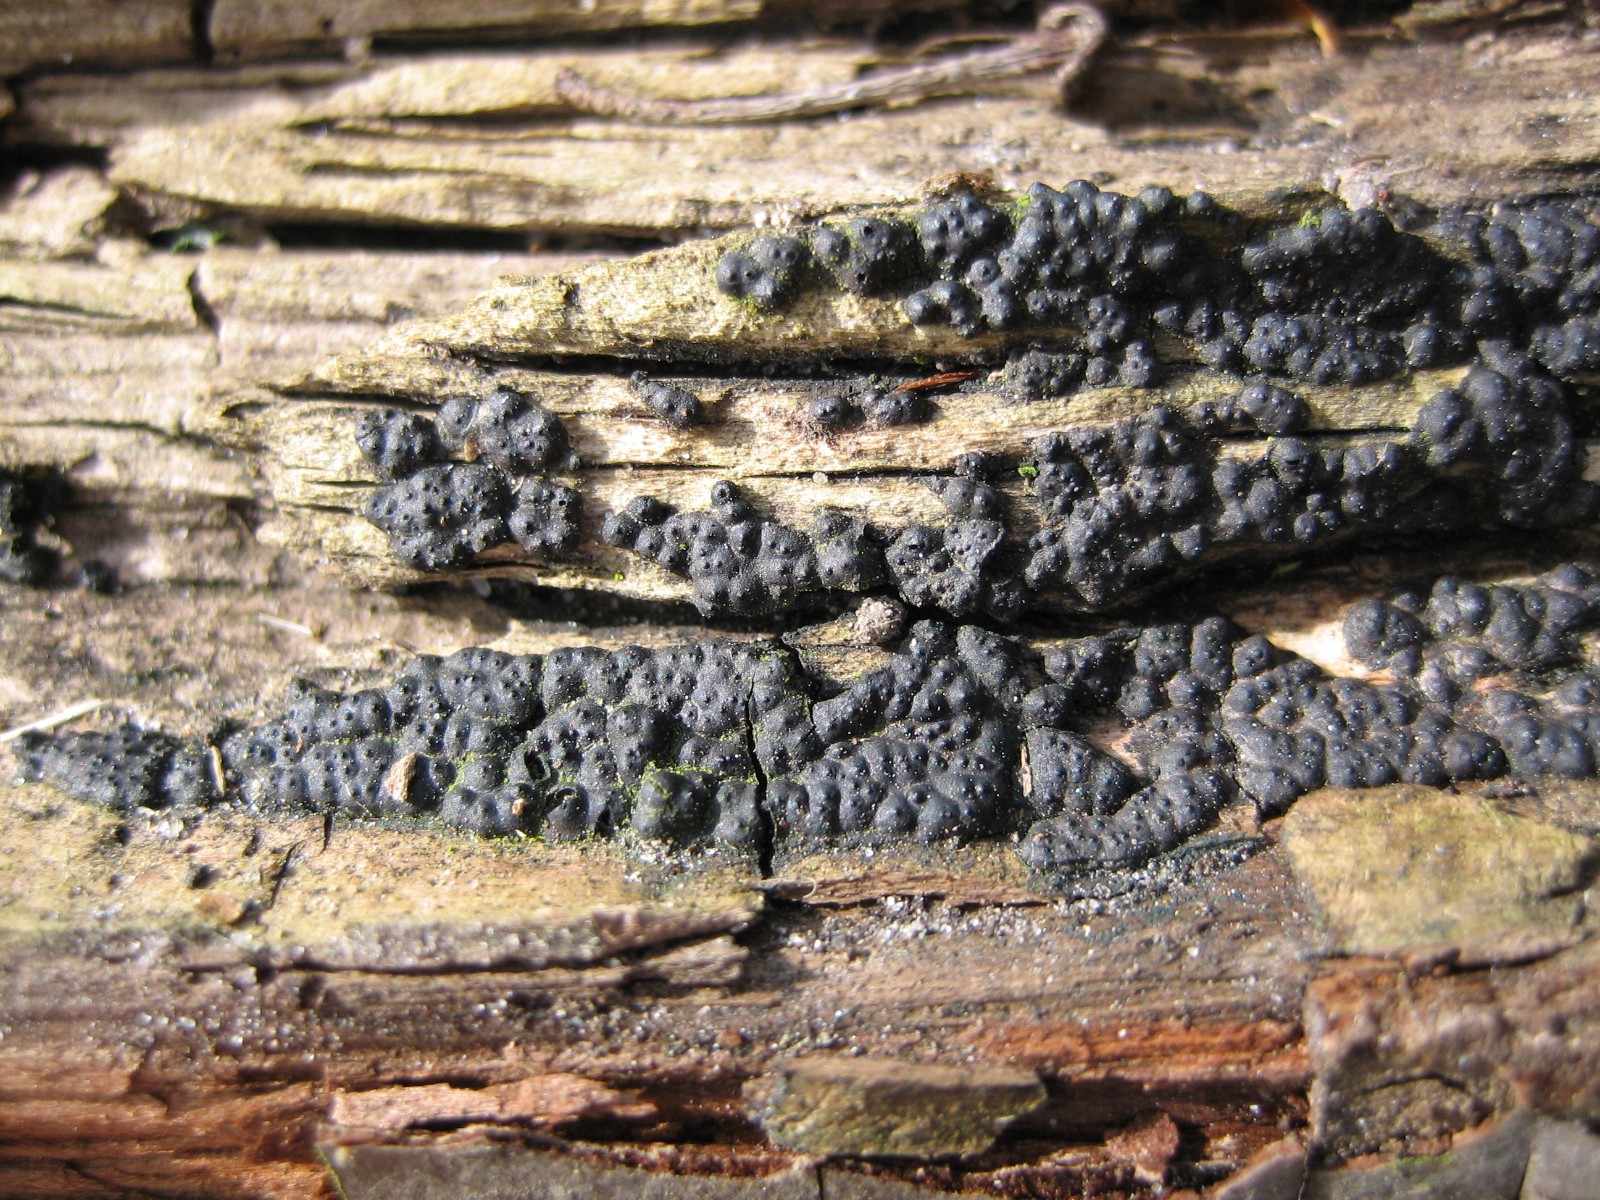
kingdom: Fungi
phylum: Ascomycota
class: Sordariomycetes
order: Xylariales
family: Xylariaceae
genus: Nemania
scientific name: Nemania
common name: kuldyne
